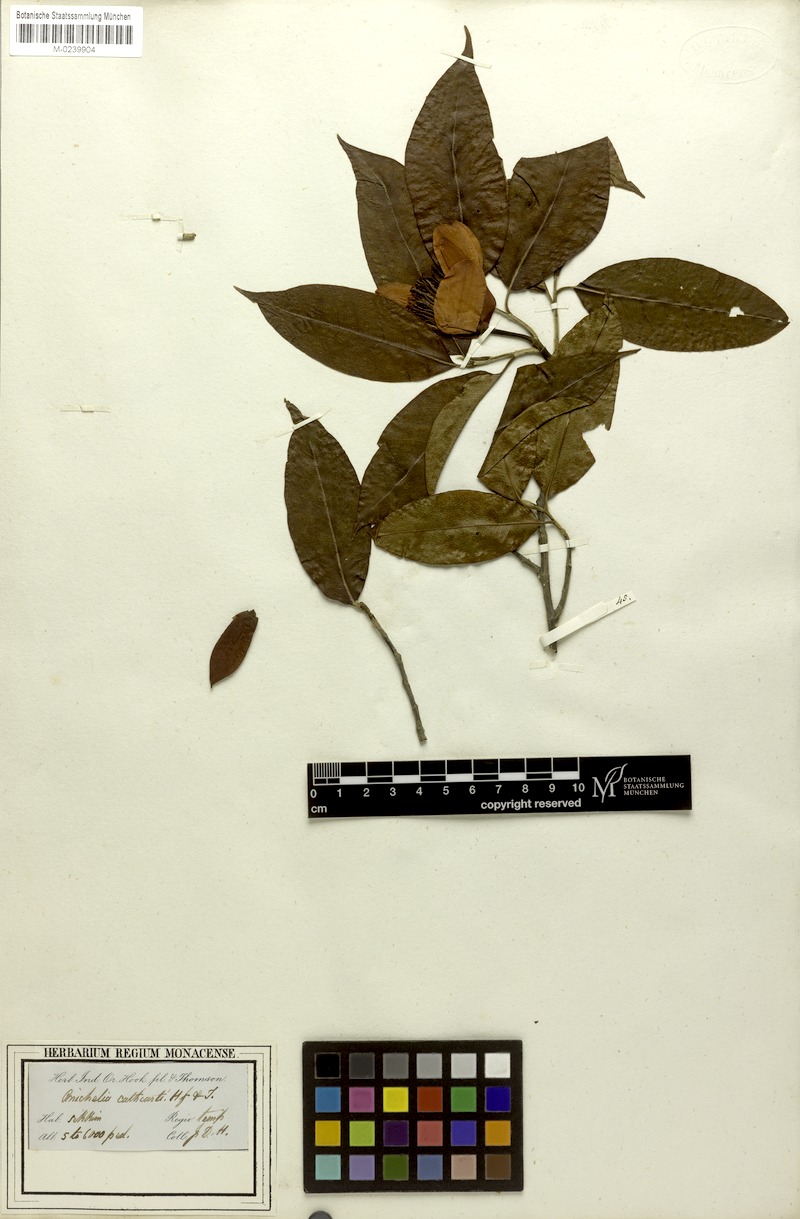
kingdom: Plantae
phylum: Tracheophyta
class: Magnoliopsida
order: Magnoliales
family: Magnoliaceae
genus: Magnolia
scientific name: Magnolia cathcartii
